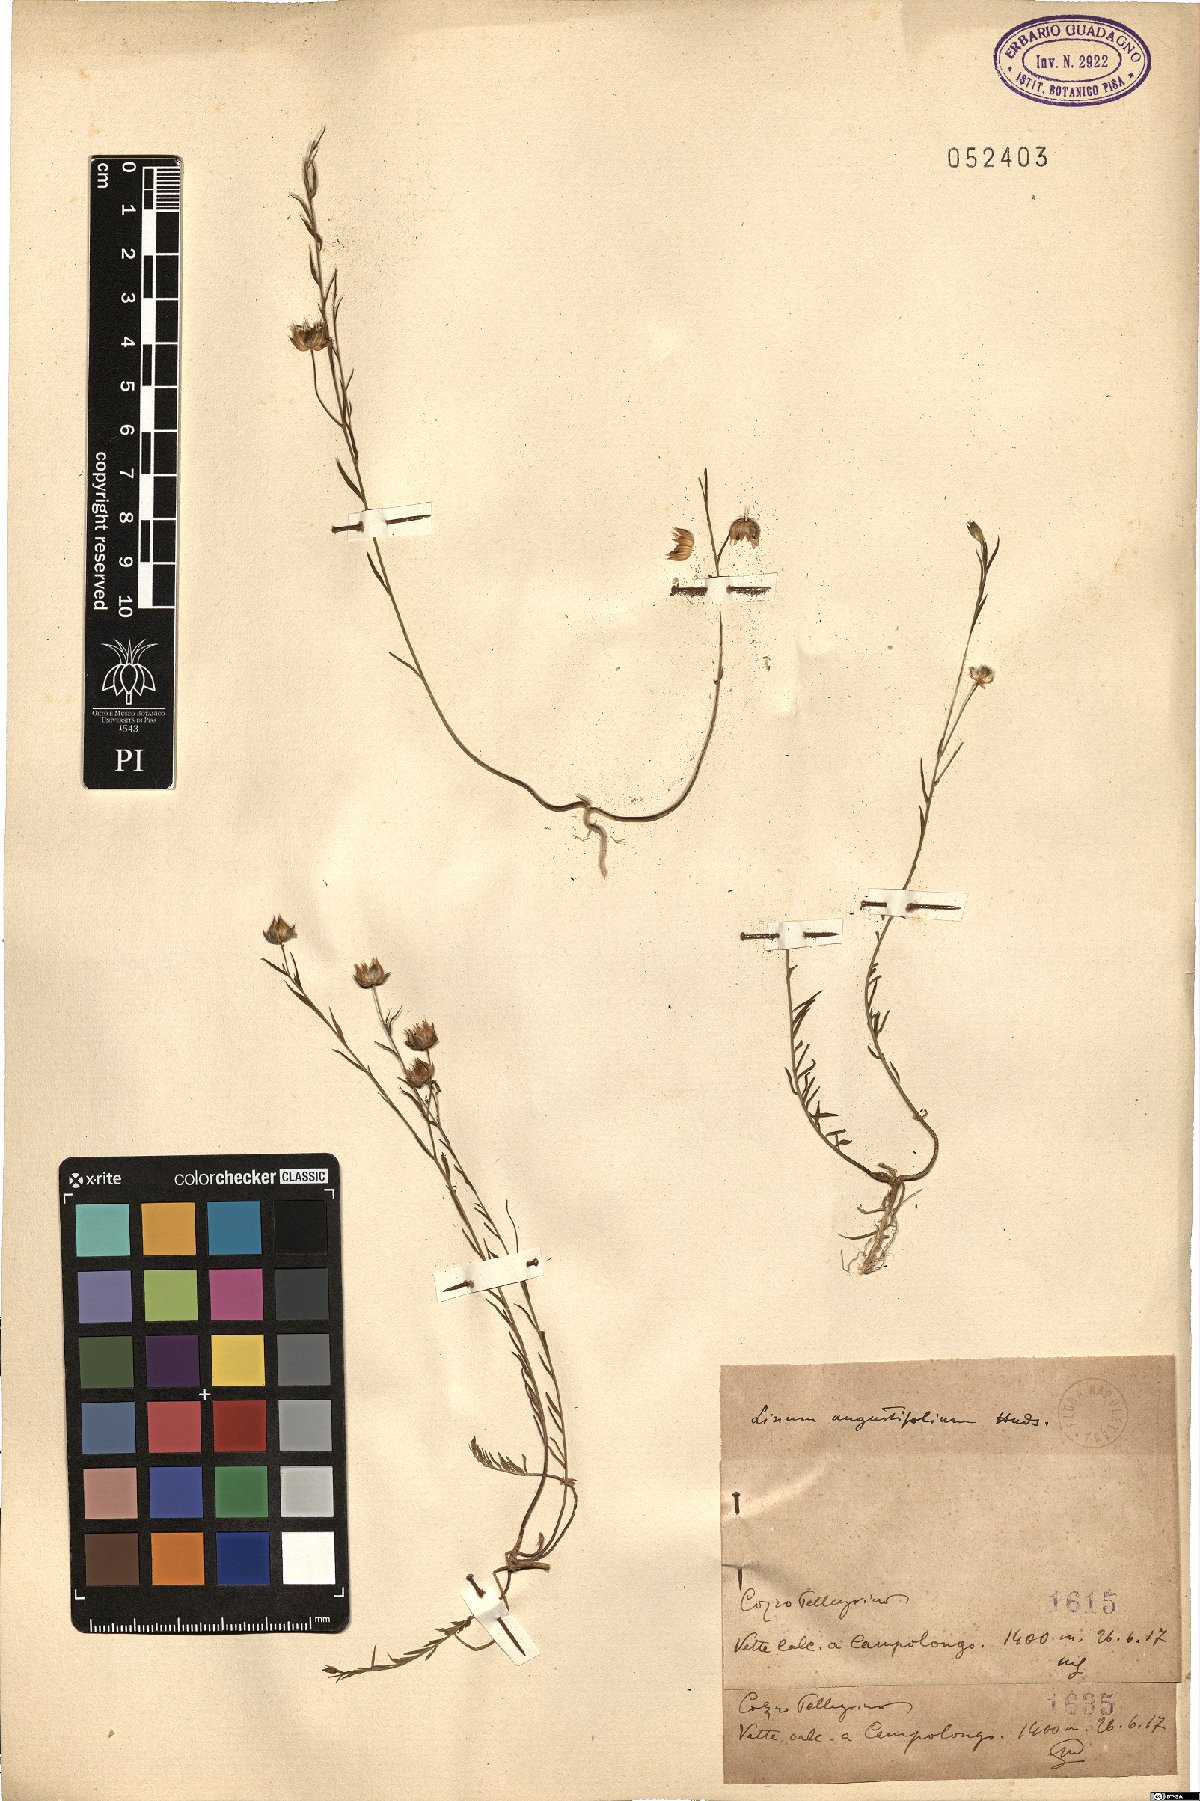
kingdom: Plantae
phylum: Tracheophyta
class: Magnoliopsida
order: Malpighiales
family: Linaceae
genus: Linum
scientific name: Linum bienne
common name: Pale flax
